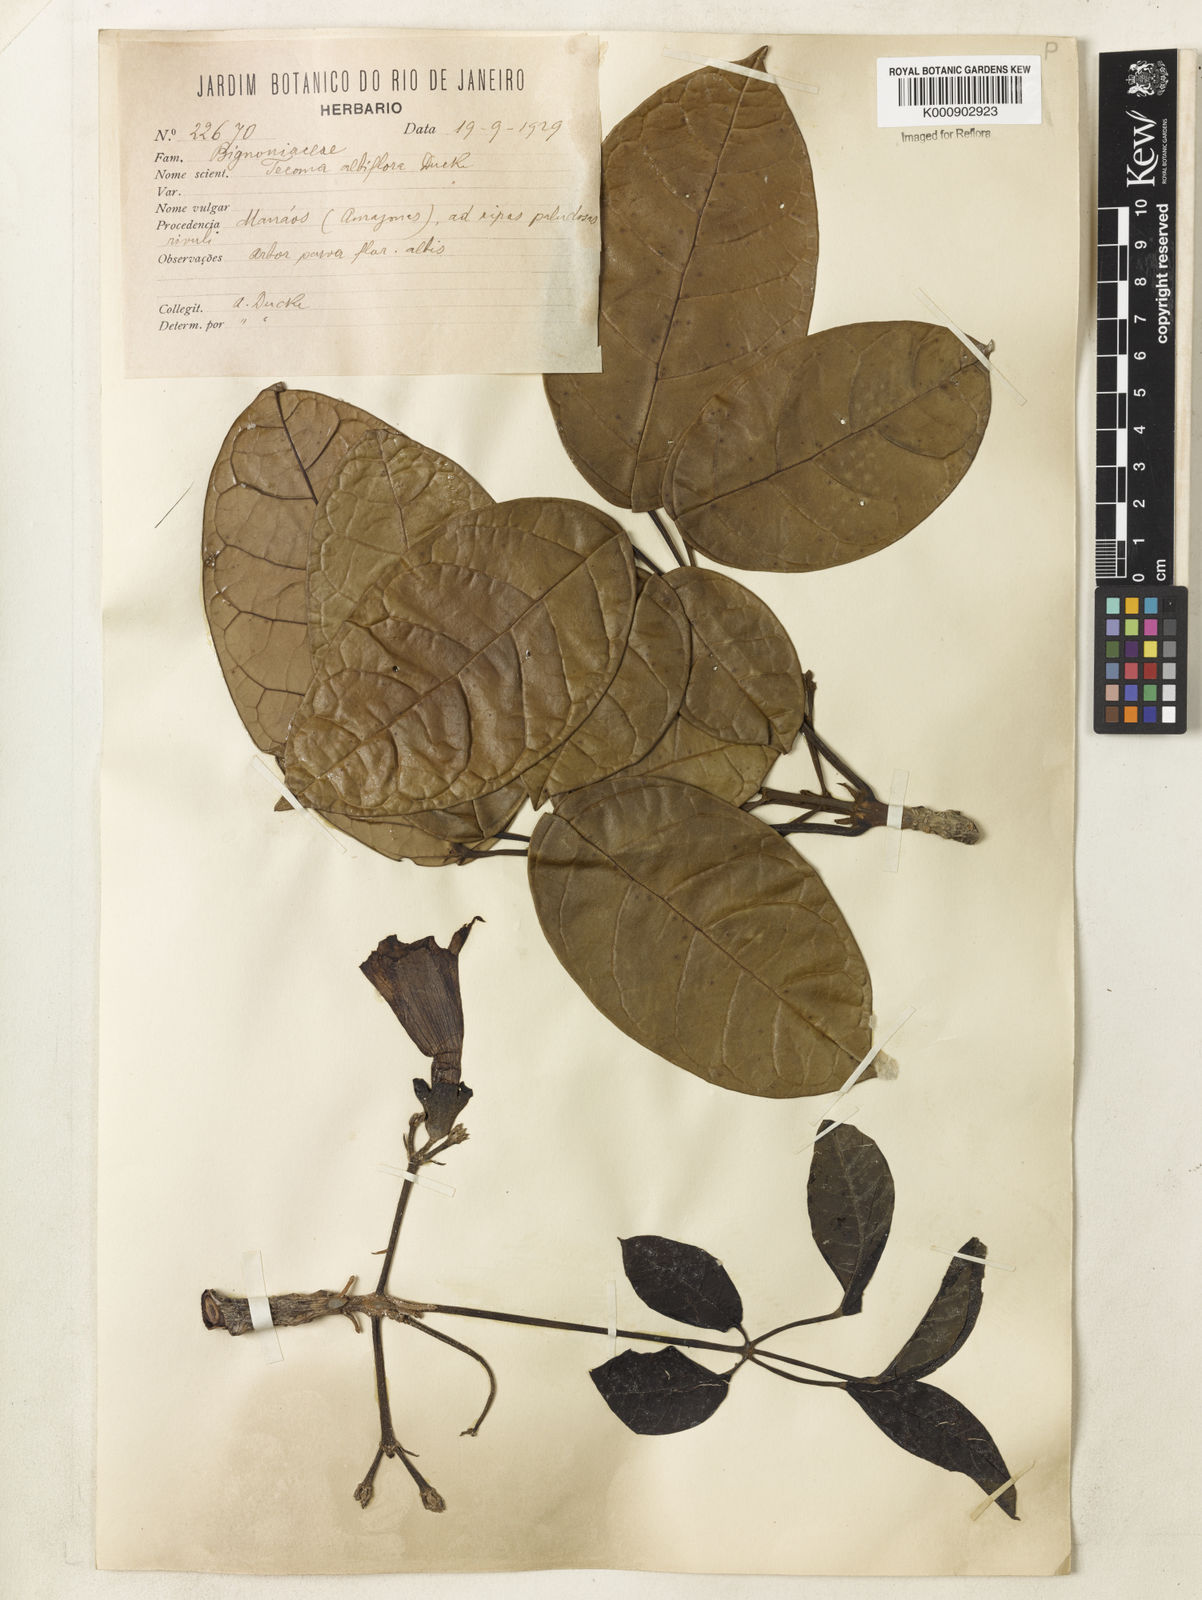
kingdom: Plantae
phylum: Tracheophyta
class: Magnoliopsida
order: Lamiales
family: Bignoniaceae
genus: Tabebuia
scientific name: Tabebuia insignis
